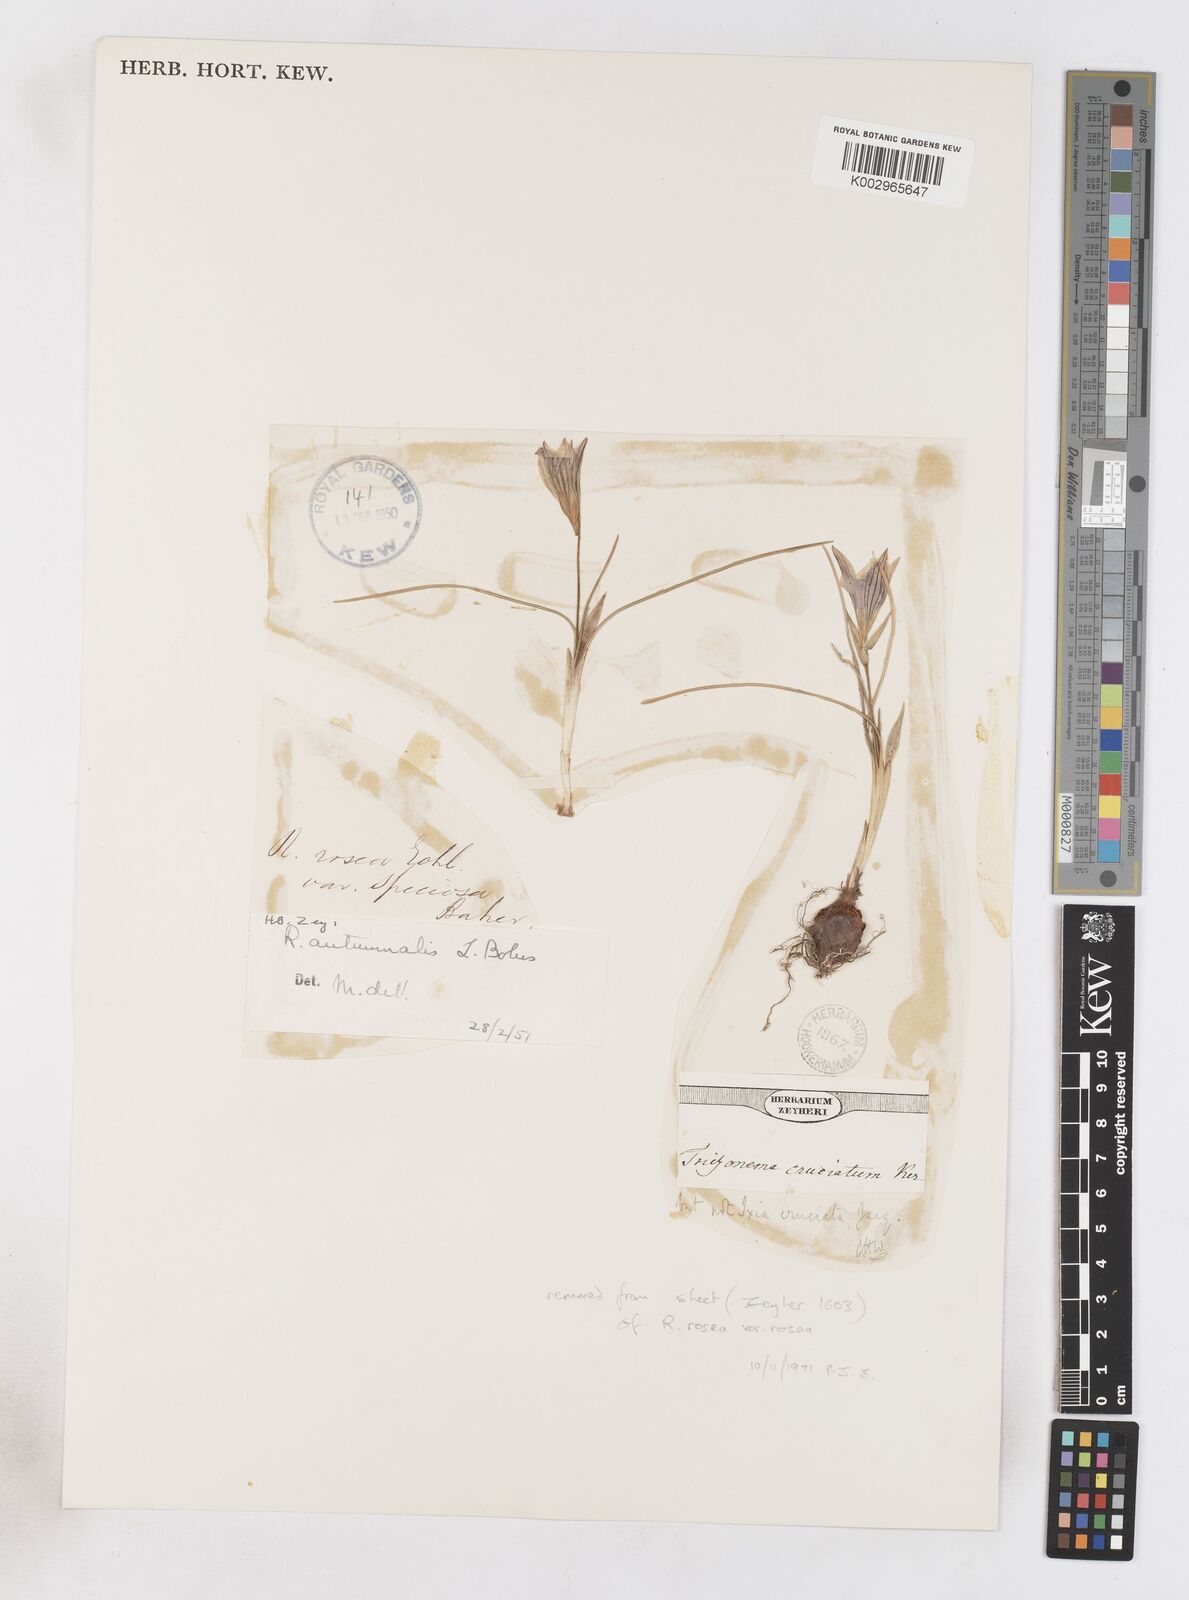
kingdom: Plantae
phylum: Tracheophyta
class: Liliopsida
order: Asparagales
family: Iridaceae
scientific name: Iridaceae
